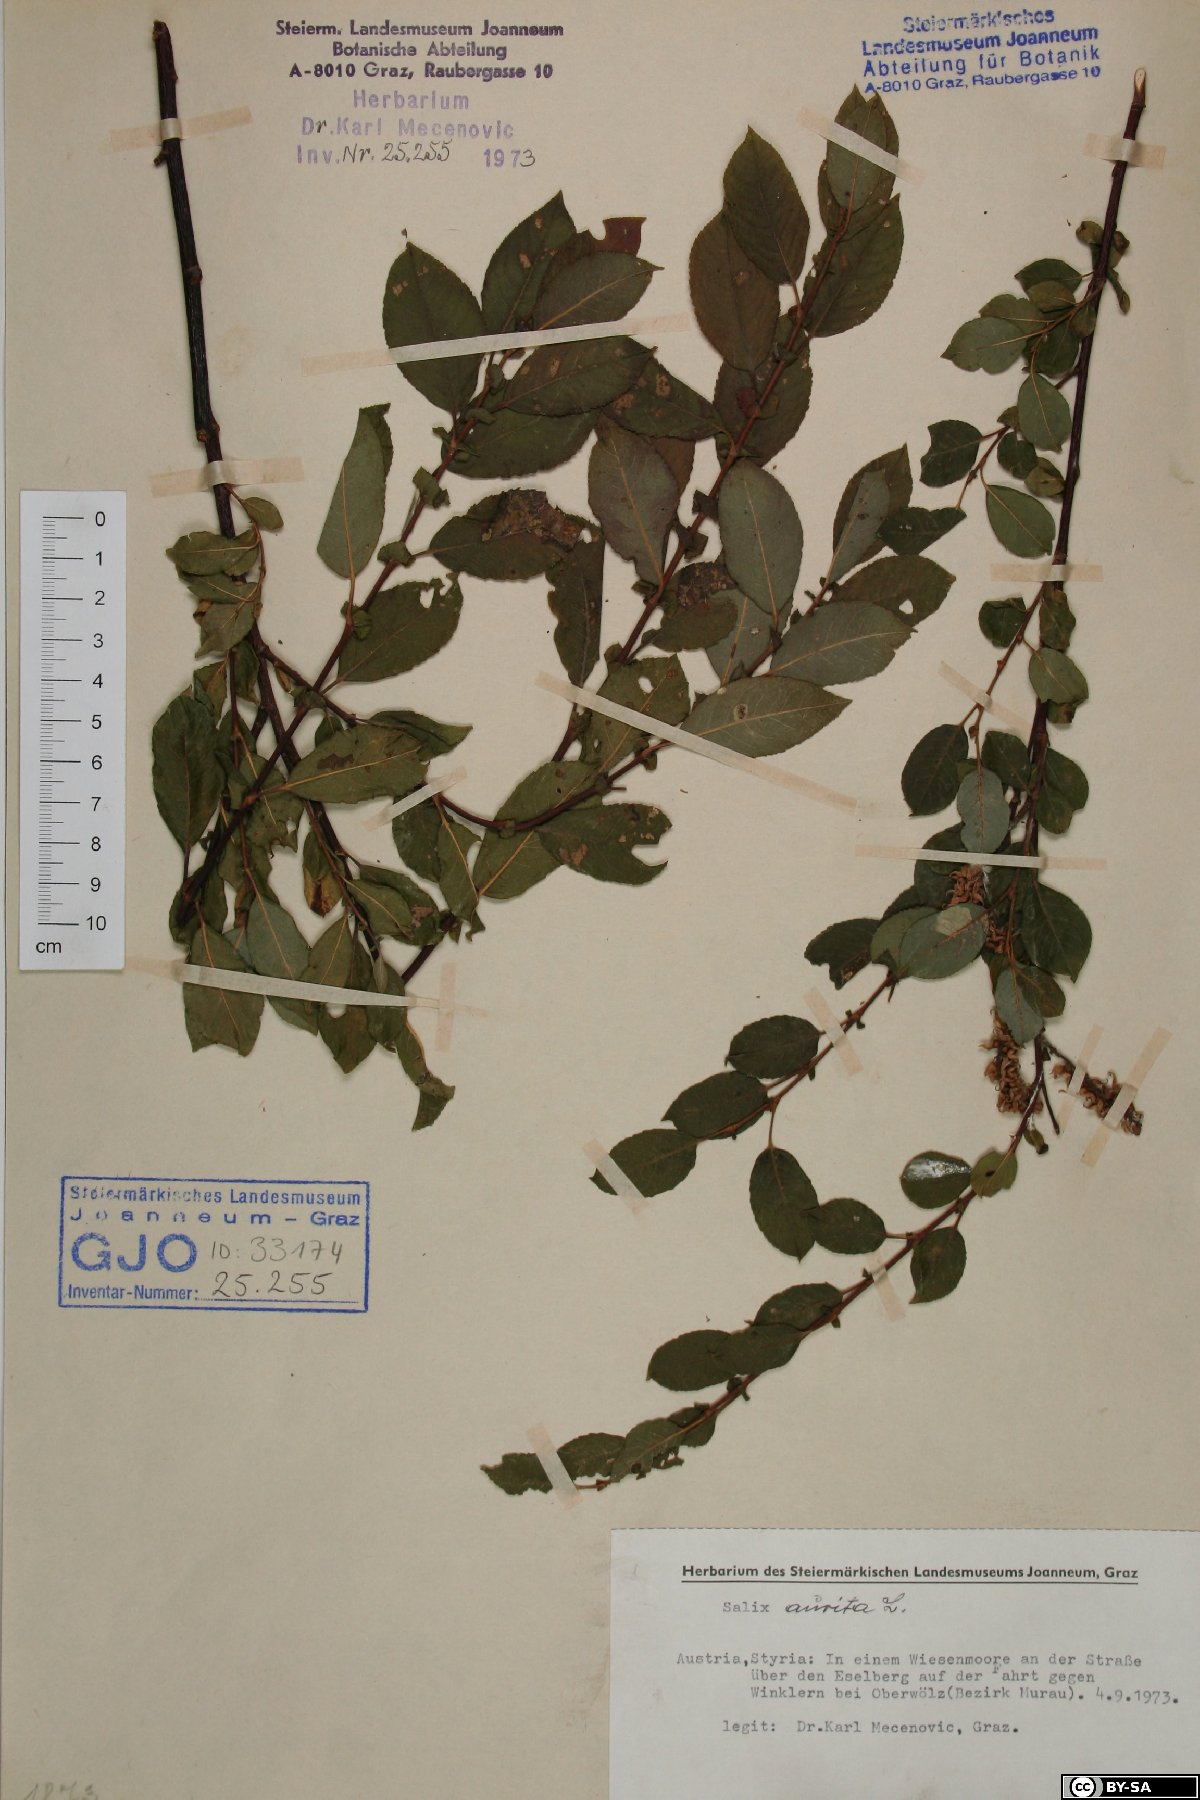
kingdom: Plantae
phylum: Tracheophyta
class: Magnoliopsida
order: Malpighiales
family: Salicaceae
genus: Salix
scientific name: Salix aurita
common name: Eared willow
